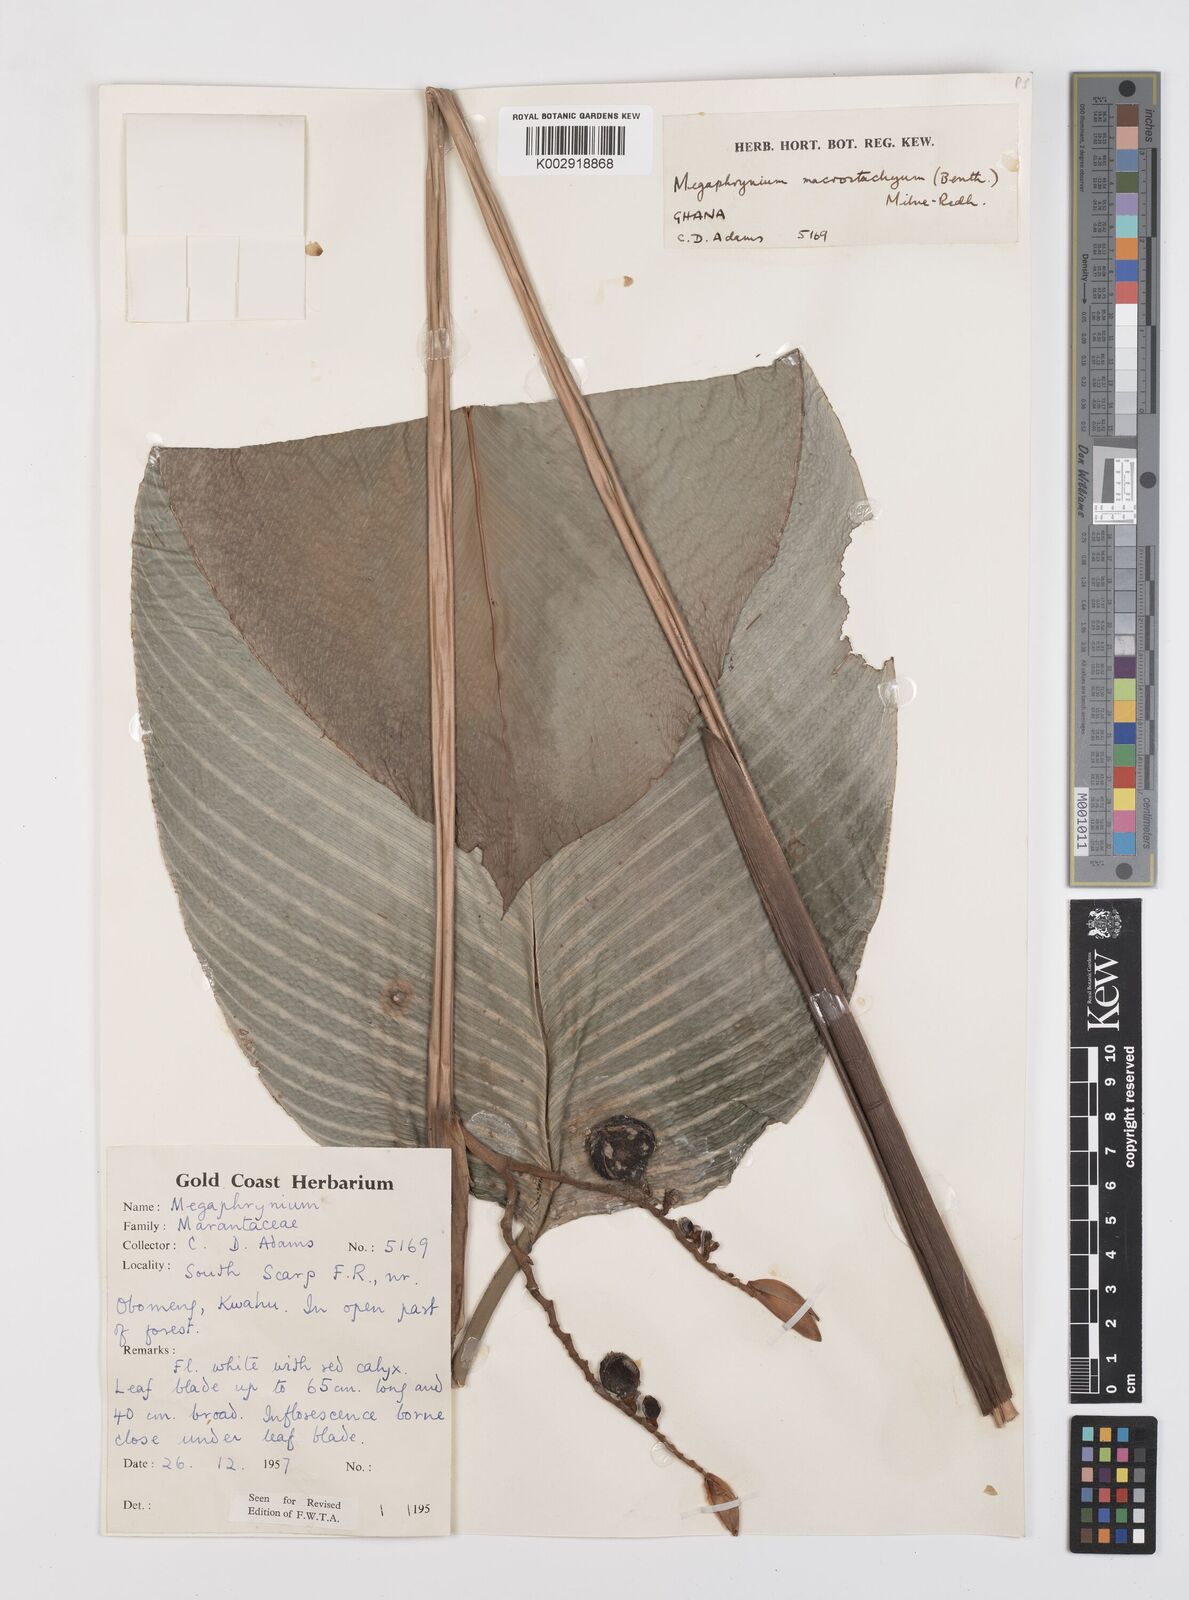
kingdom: Plantae
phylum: Tracheophyta
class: Liliopsida
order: Zingiberales
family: Marantaceae
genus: Megaphrynium
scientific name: Megaphrynium macrostachyum
